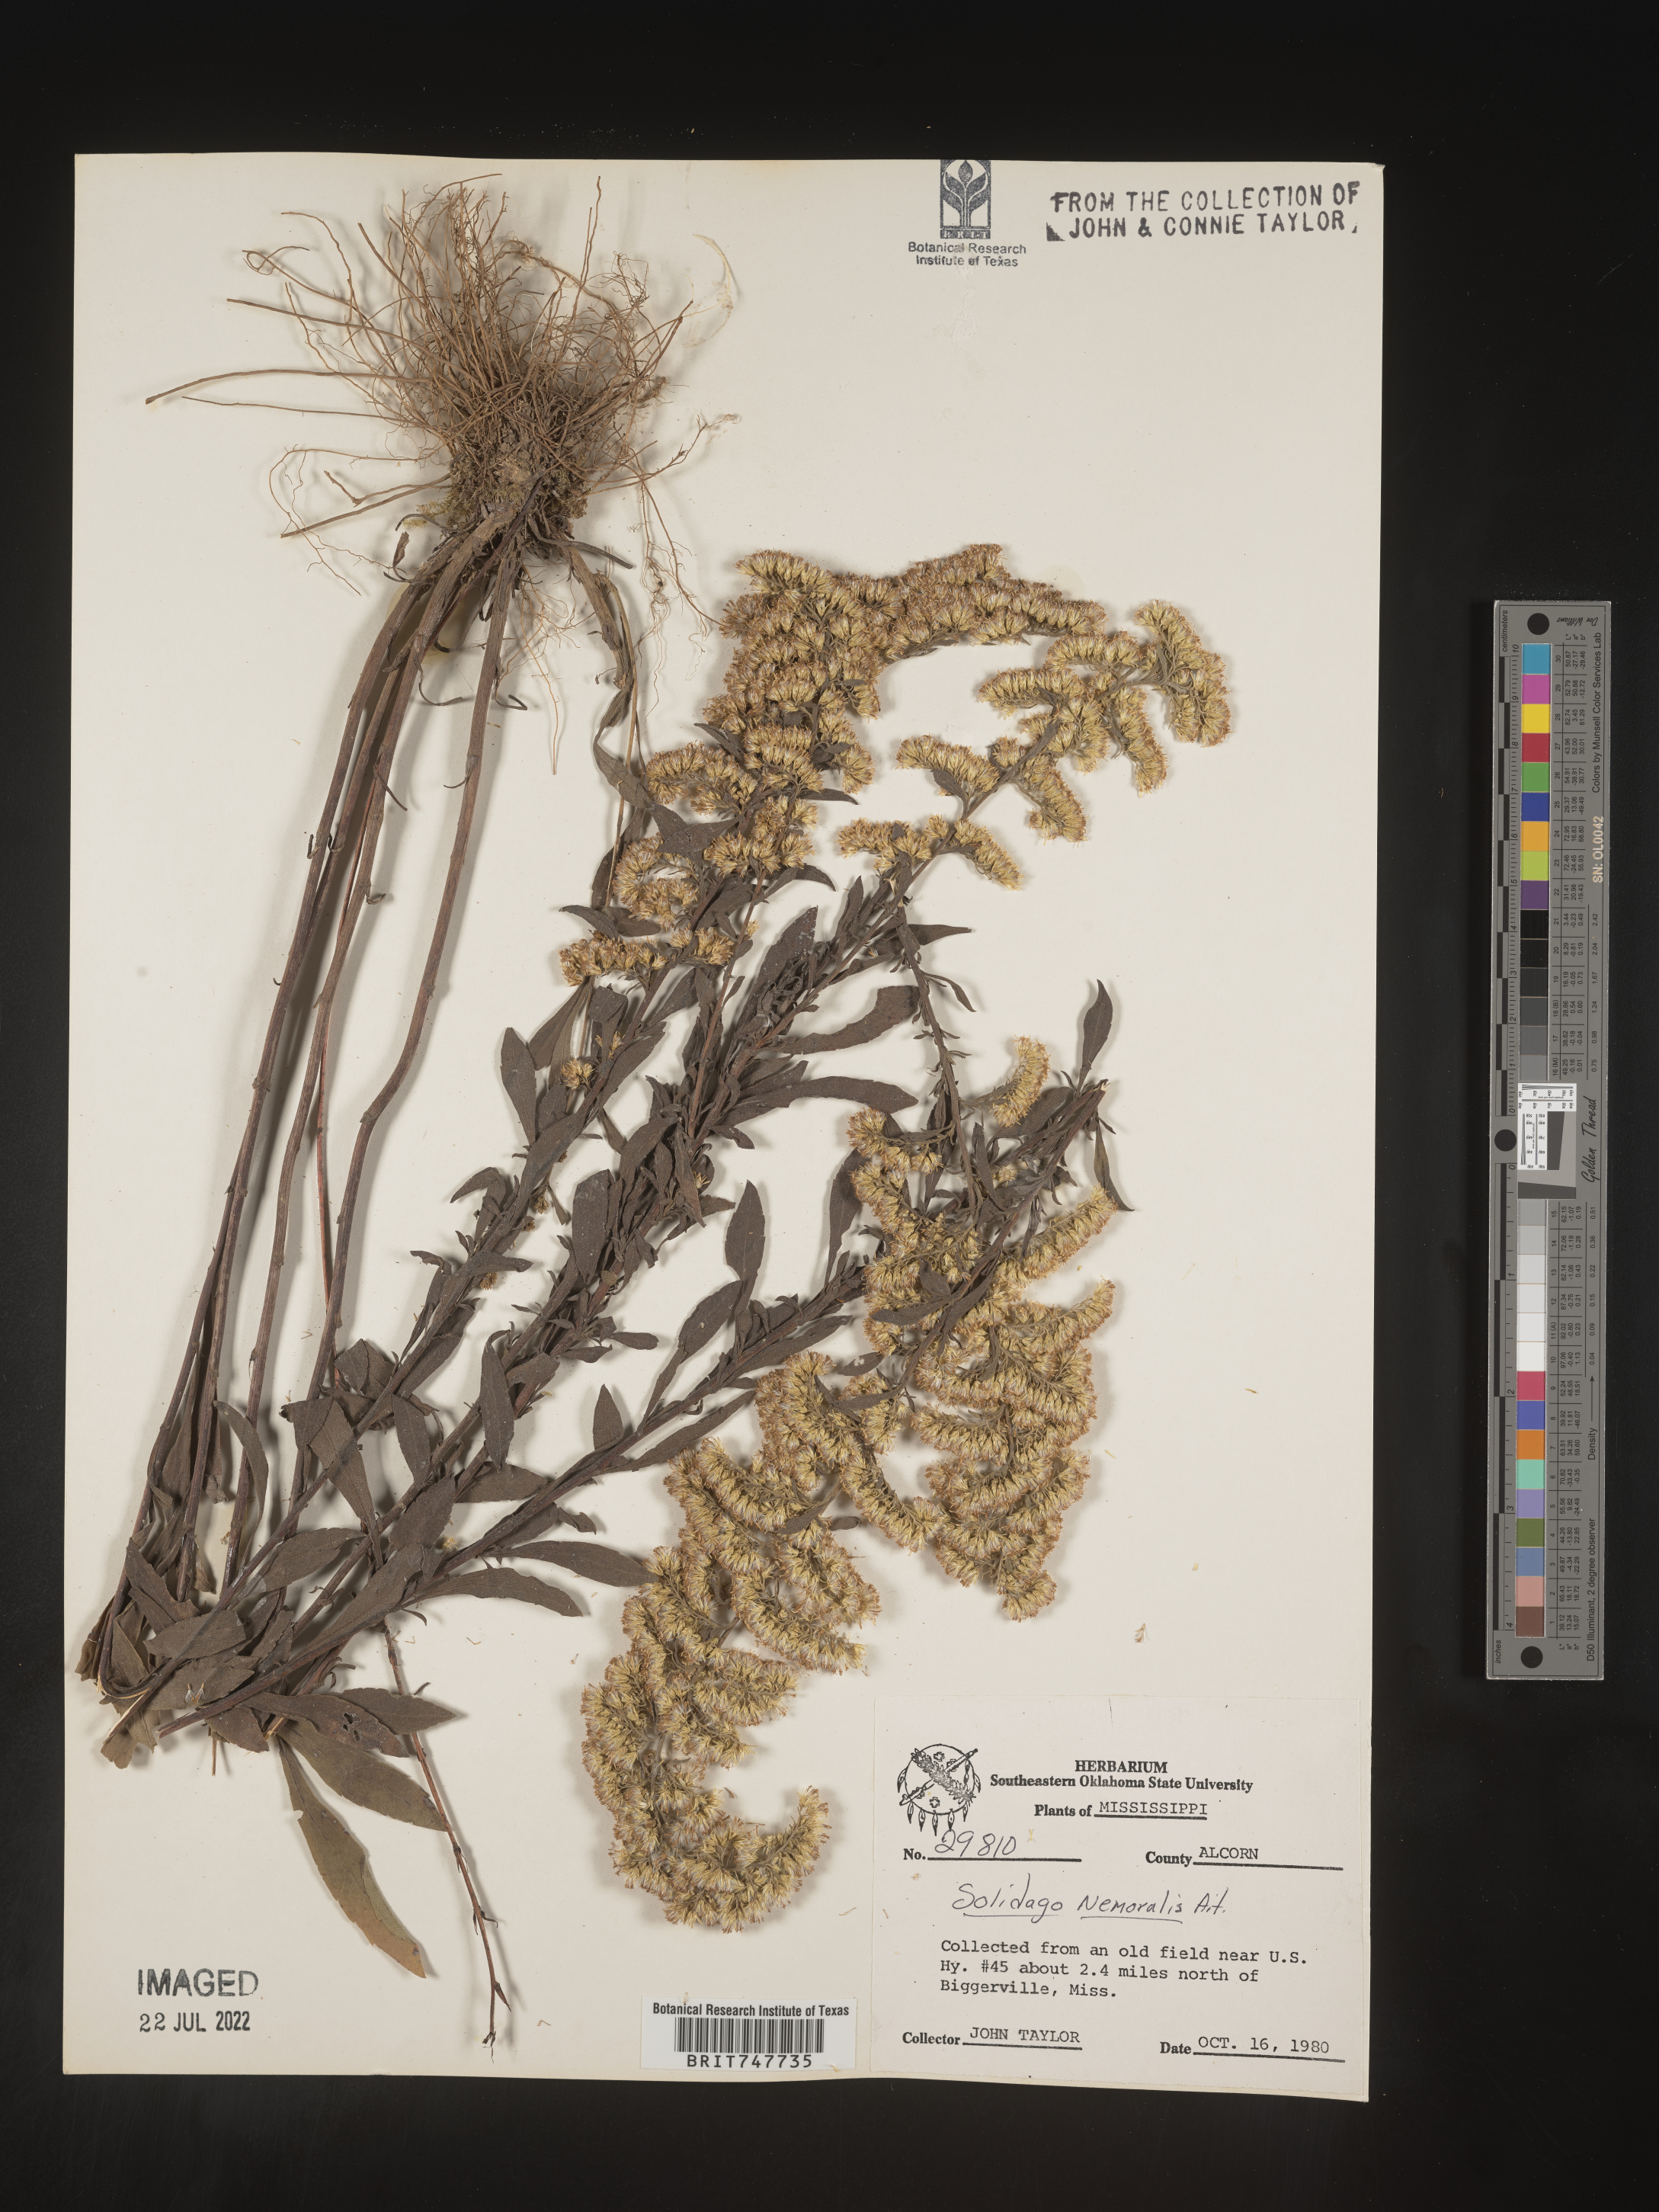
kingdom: Plantae
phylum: Tracheophyta
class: Magnoliopsida
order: Asterales
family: Asteraceae
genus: Solidago
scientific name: Solidago nemoralis
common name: Grey goldenrod
